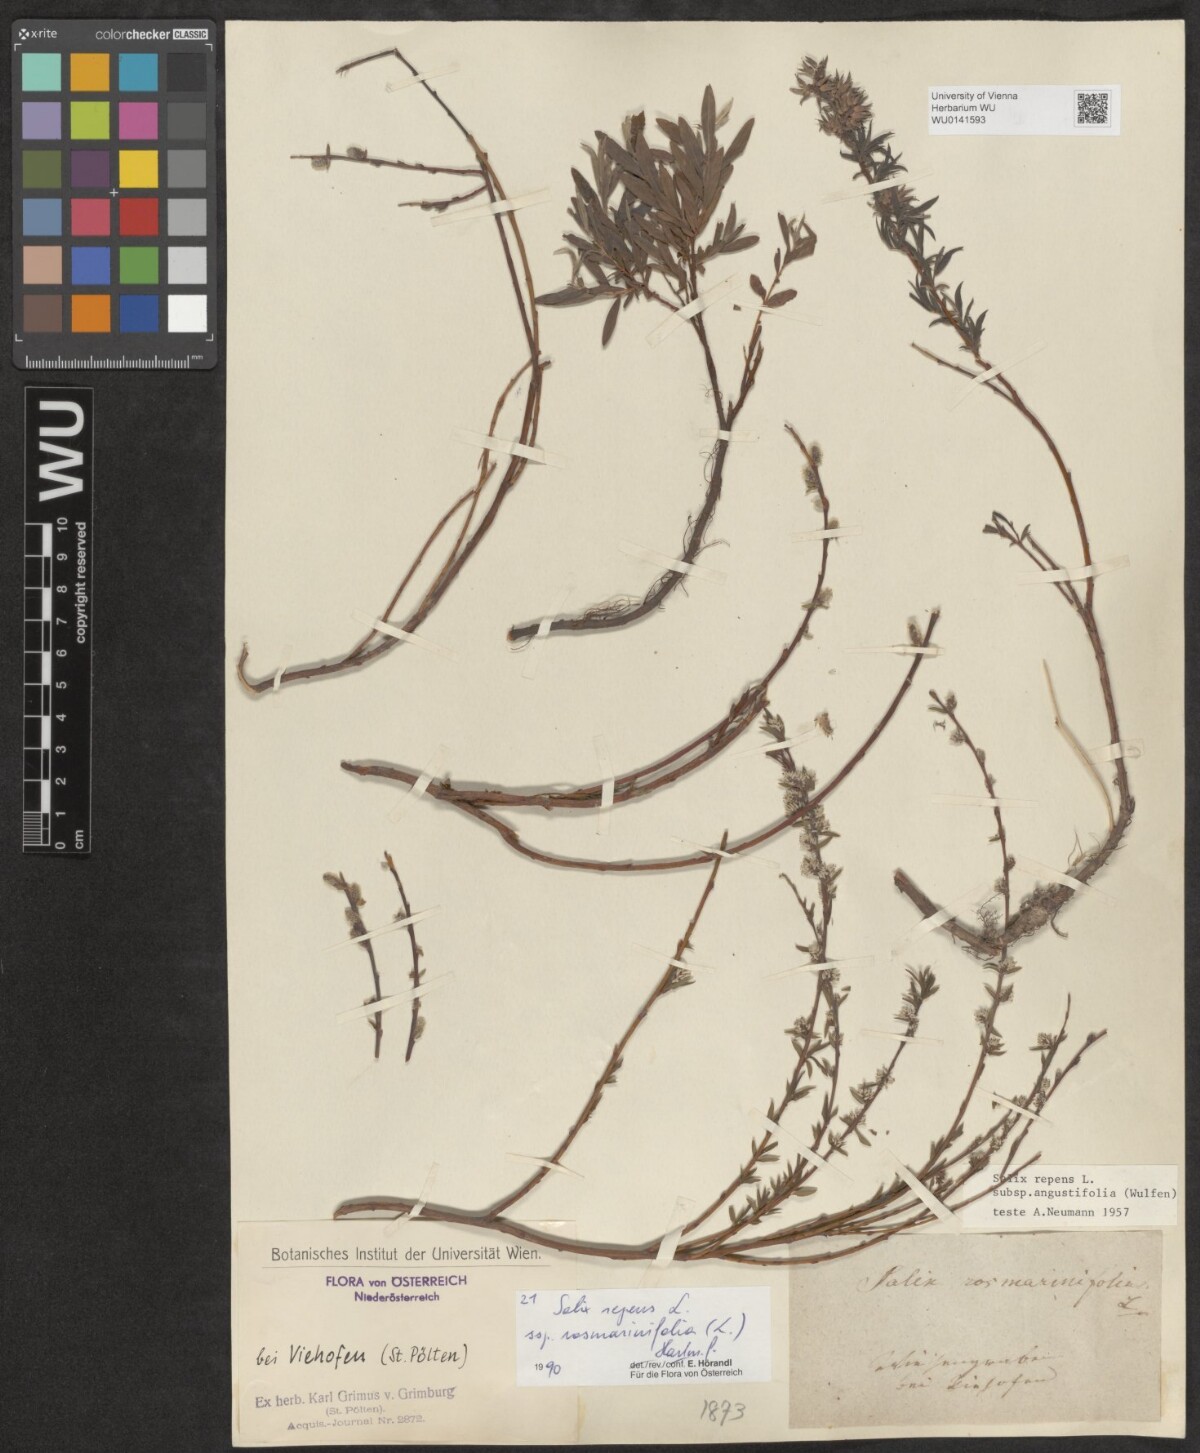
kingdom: Plantae
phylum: Tracheophyta
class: Magnoliopsida
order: Malpighiales
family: Salicaceae
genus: Salix
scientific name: Salix repens
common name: Creeping willow
